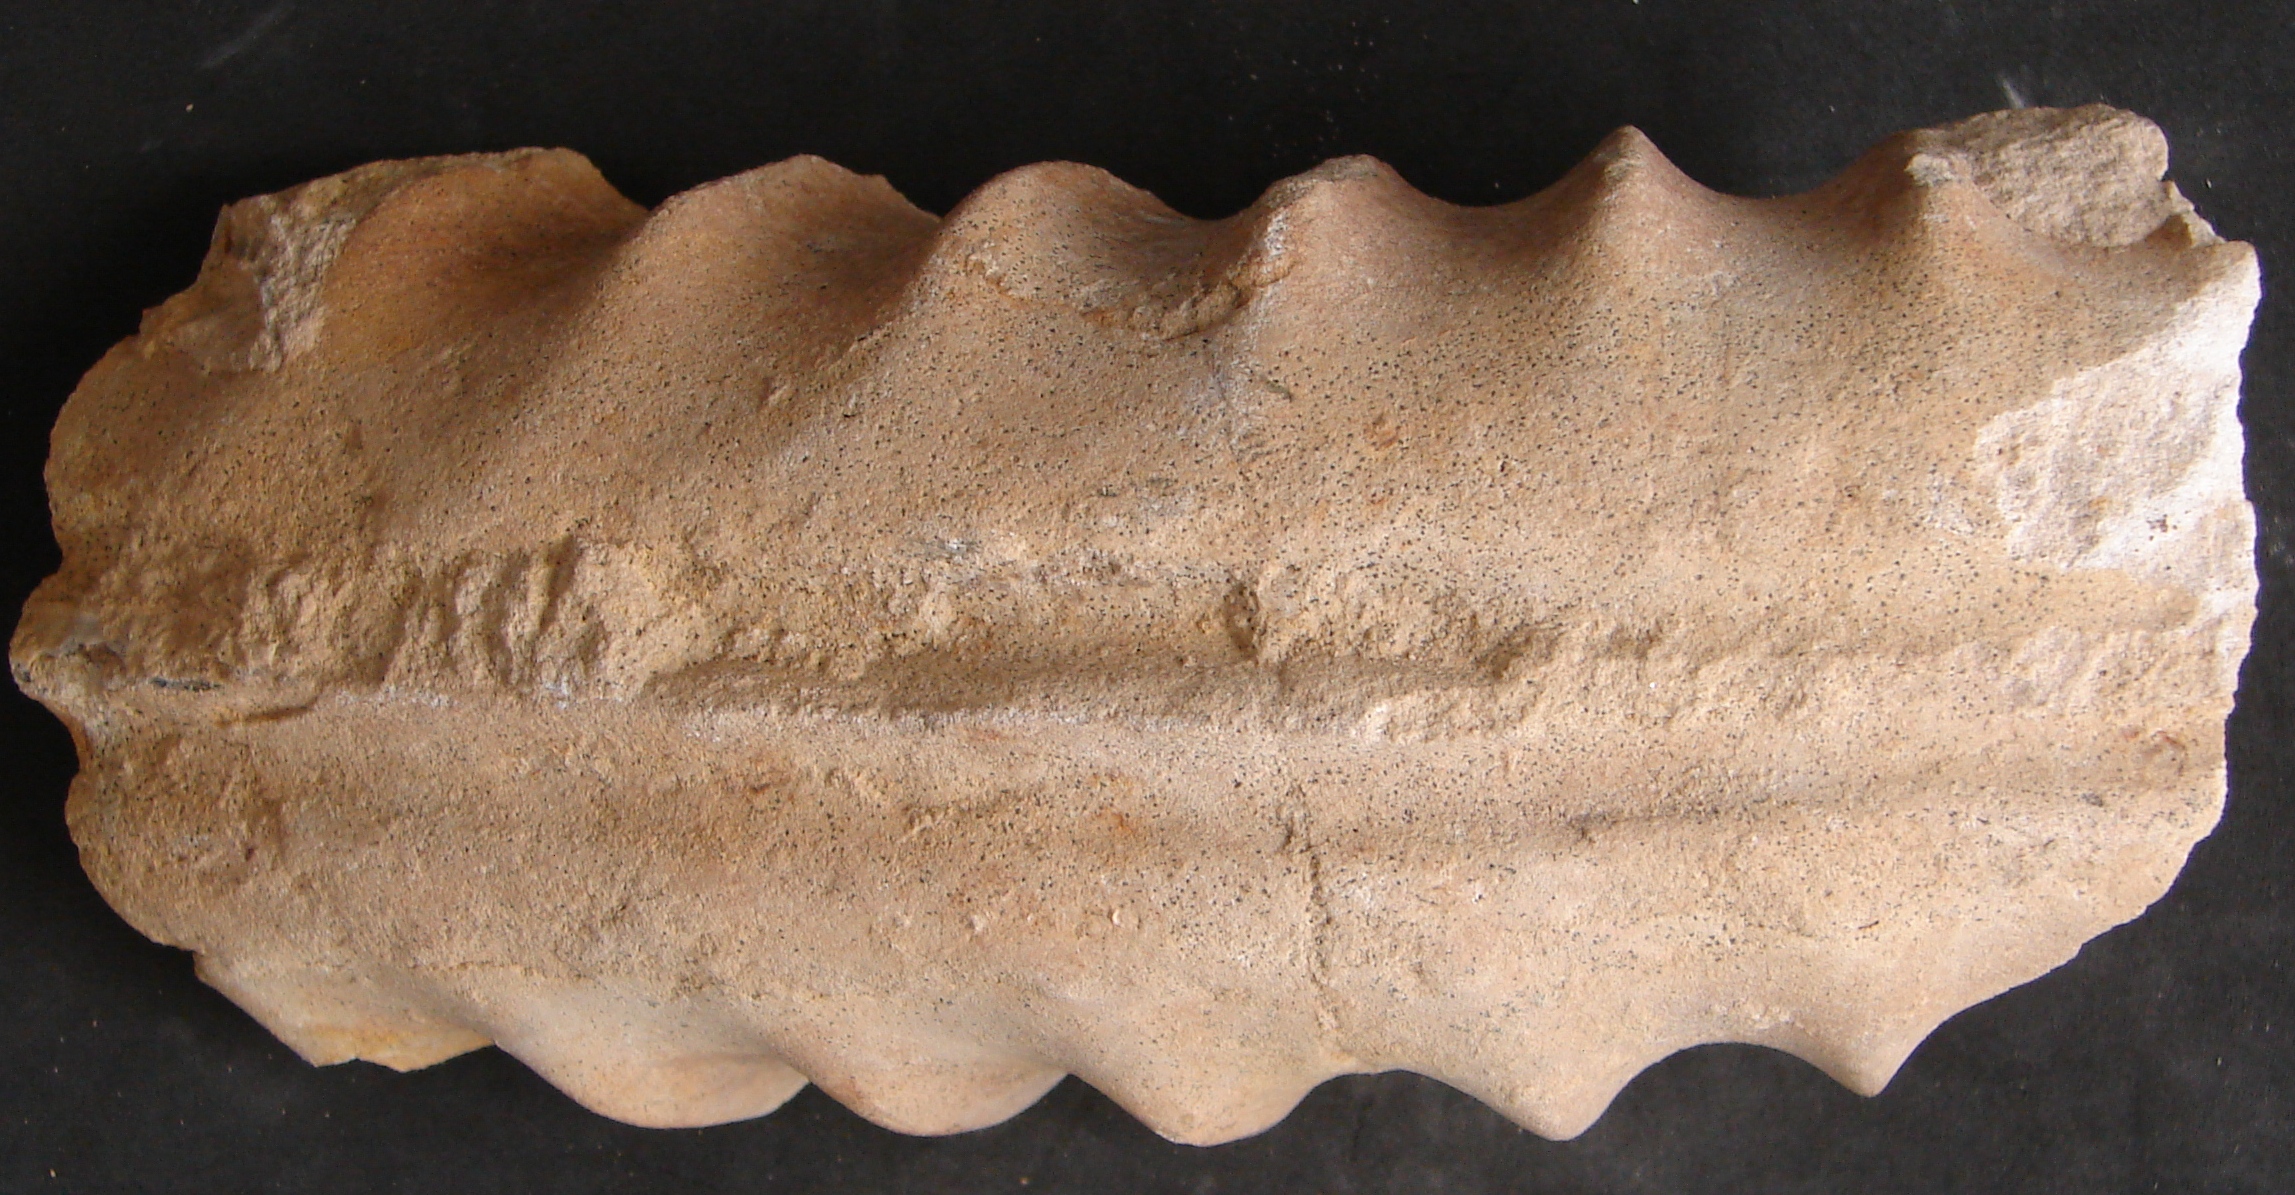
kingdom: Animalia
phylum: Mollusca
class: Cephalopoda
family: Arietitidae
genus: Coroniceras
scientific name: Coroniceras
